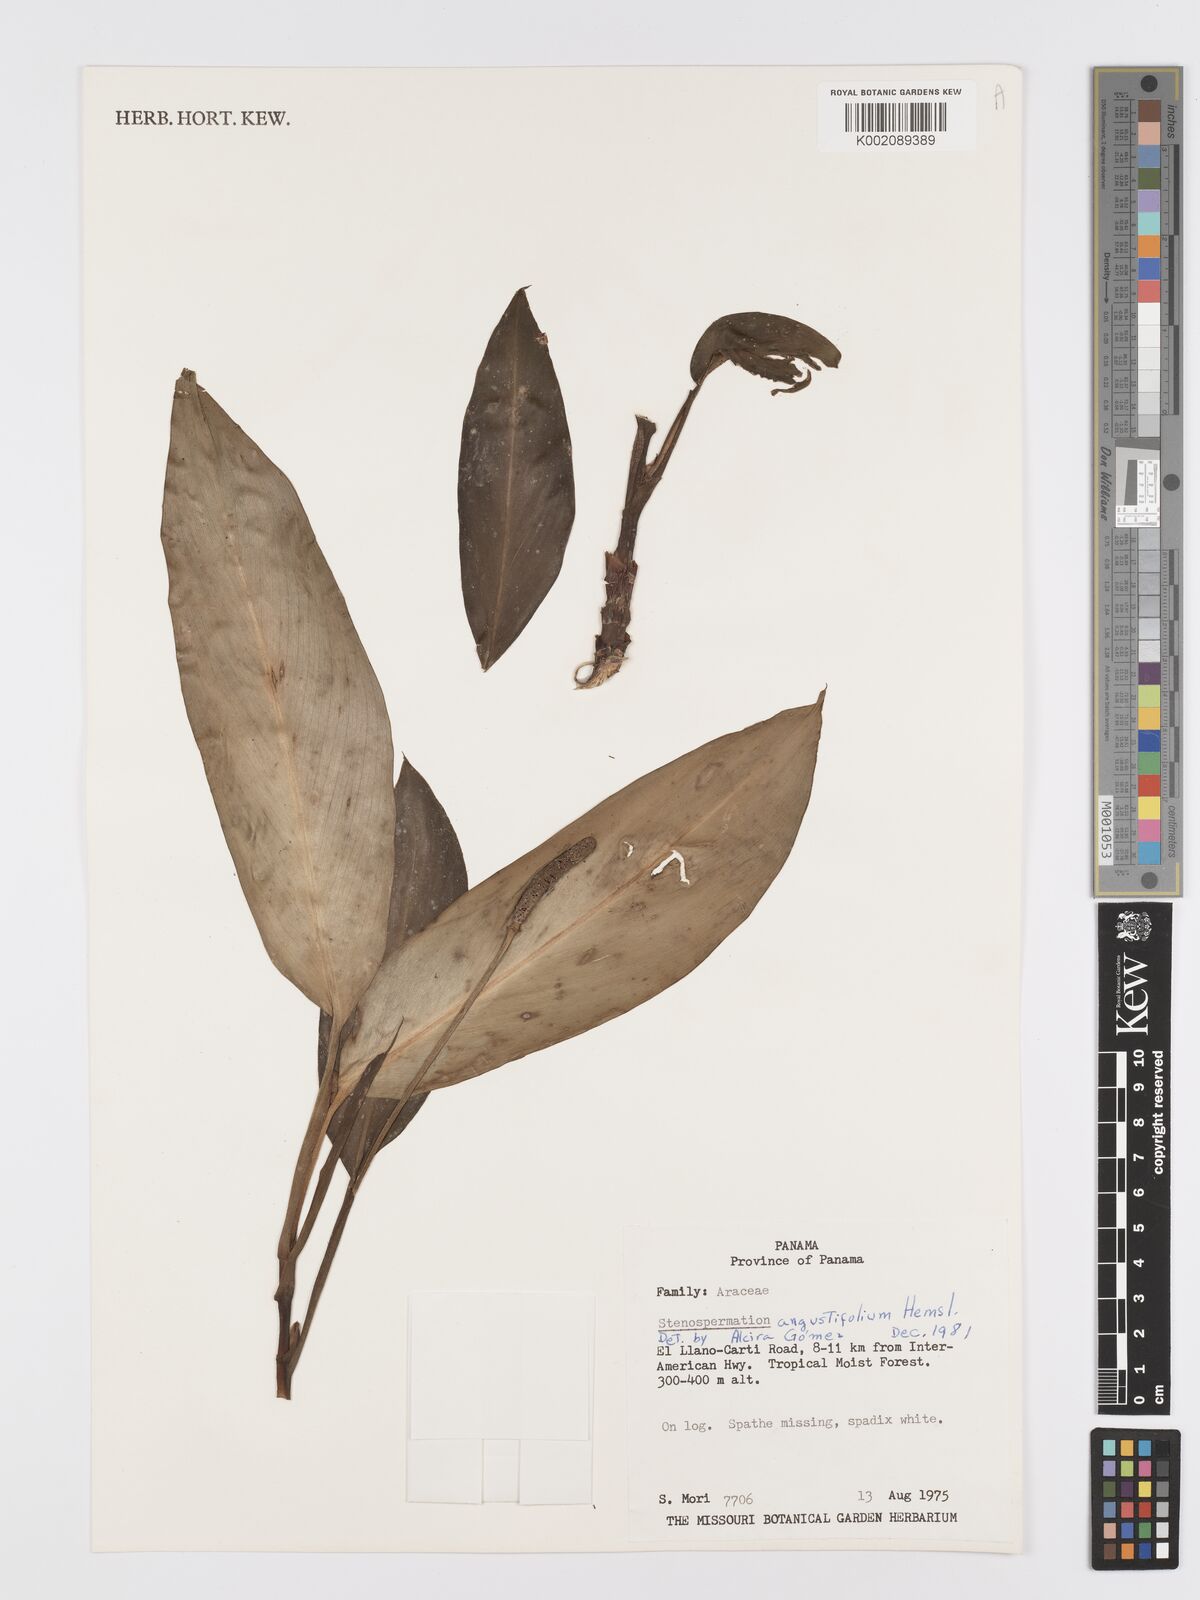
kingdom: Plantae
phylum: Tracheophyta
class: Liliopsida
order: Alismatales
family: Araceae
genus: Stenospermation
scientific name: Stenospermation angustifolium
